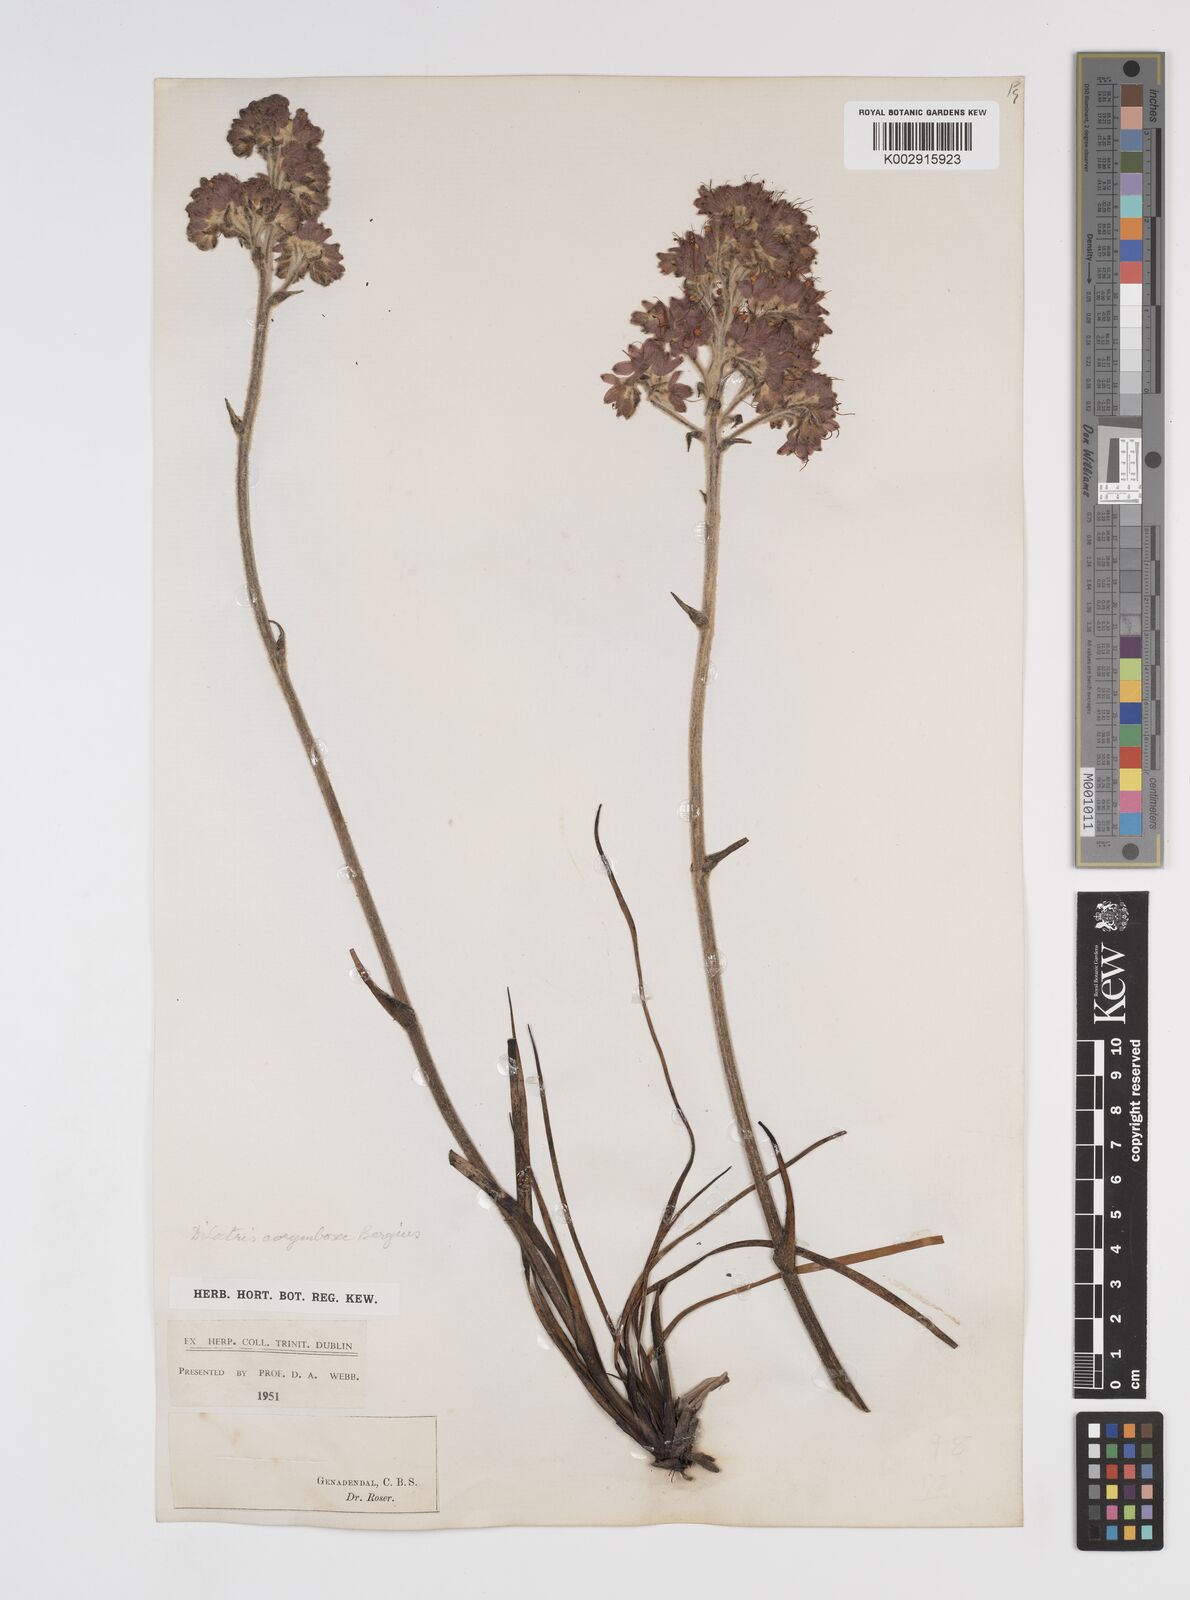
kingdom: Plantae
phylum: Tracheophyta
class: Liliopsida
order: Commelinales
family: Haemodoraceae
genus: Dilatris
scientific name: Dilatris corymbosa
